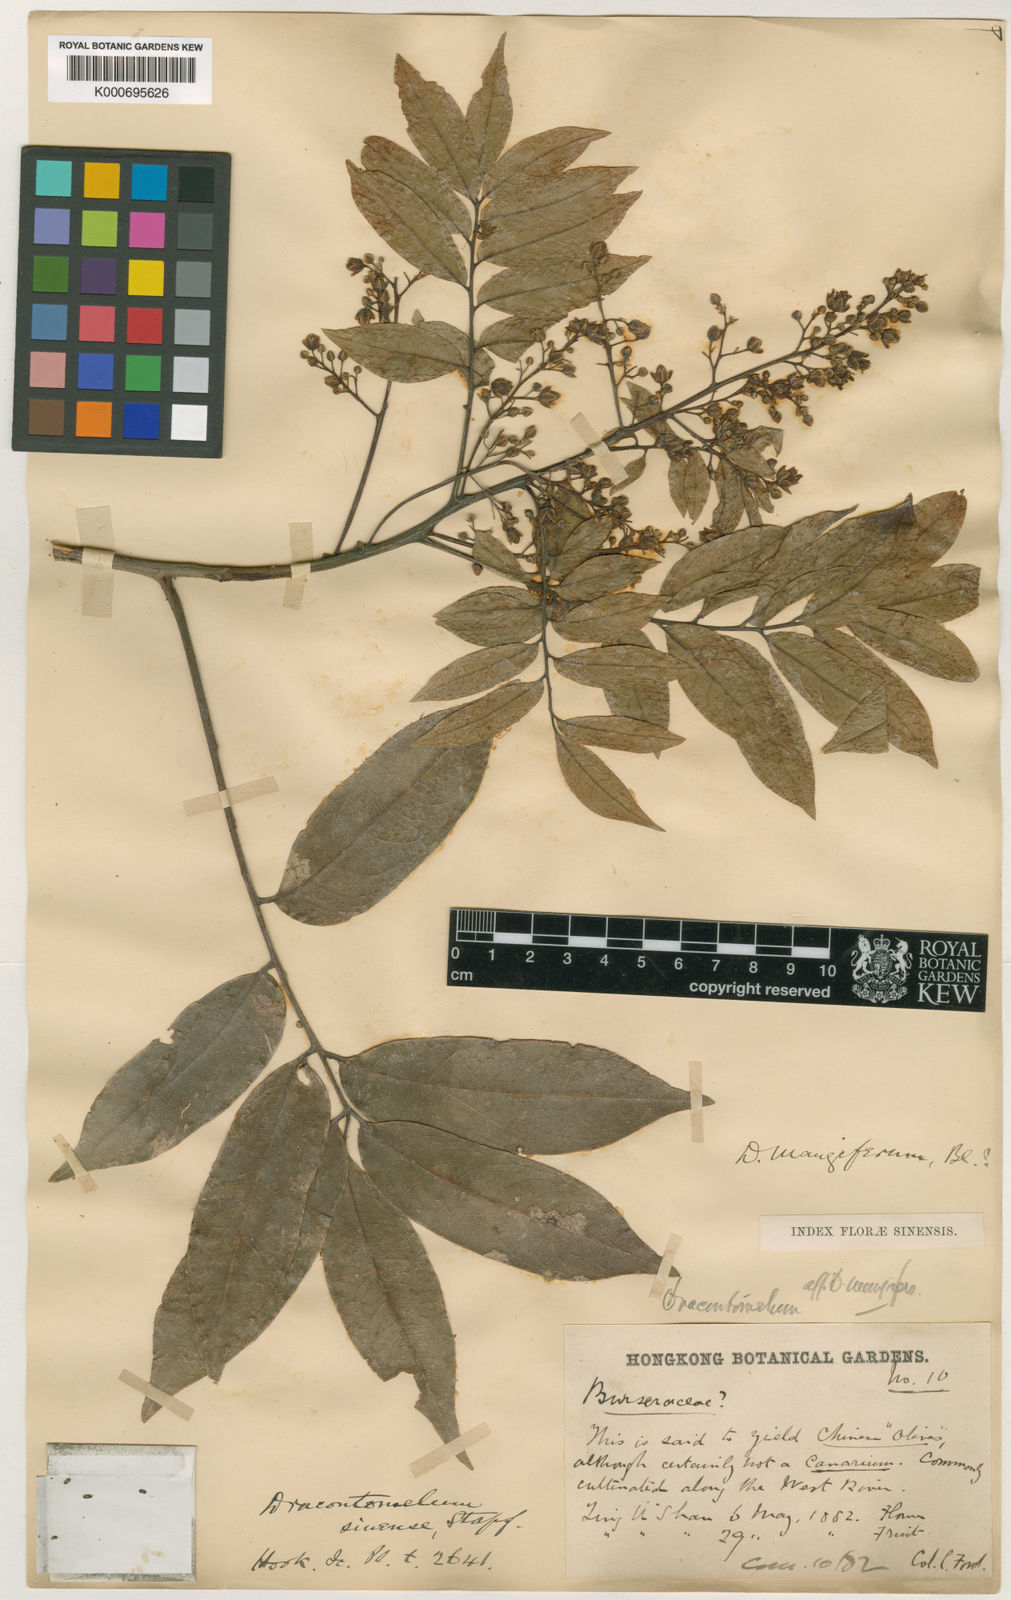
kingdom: Plantae
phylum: Tracheophyta
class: Magnoliopsida
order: Sapindales
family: Anacardiaceae
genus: Dracontomelon
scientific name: Dracontomelon duperreanum
